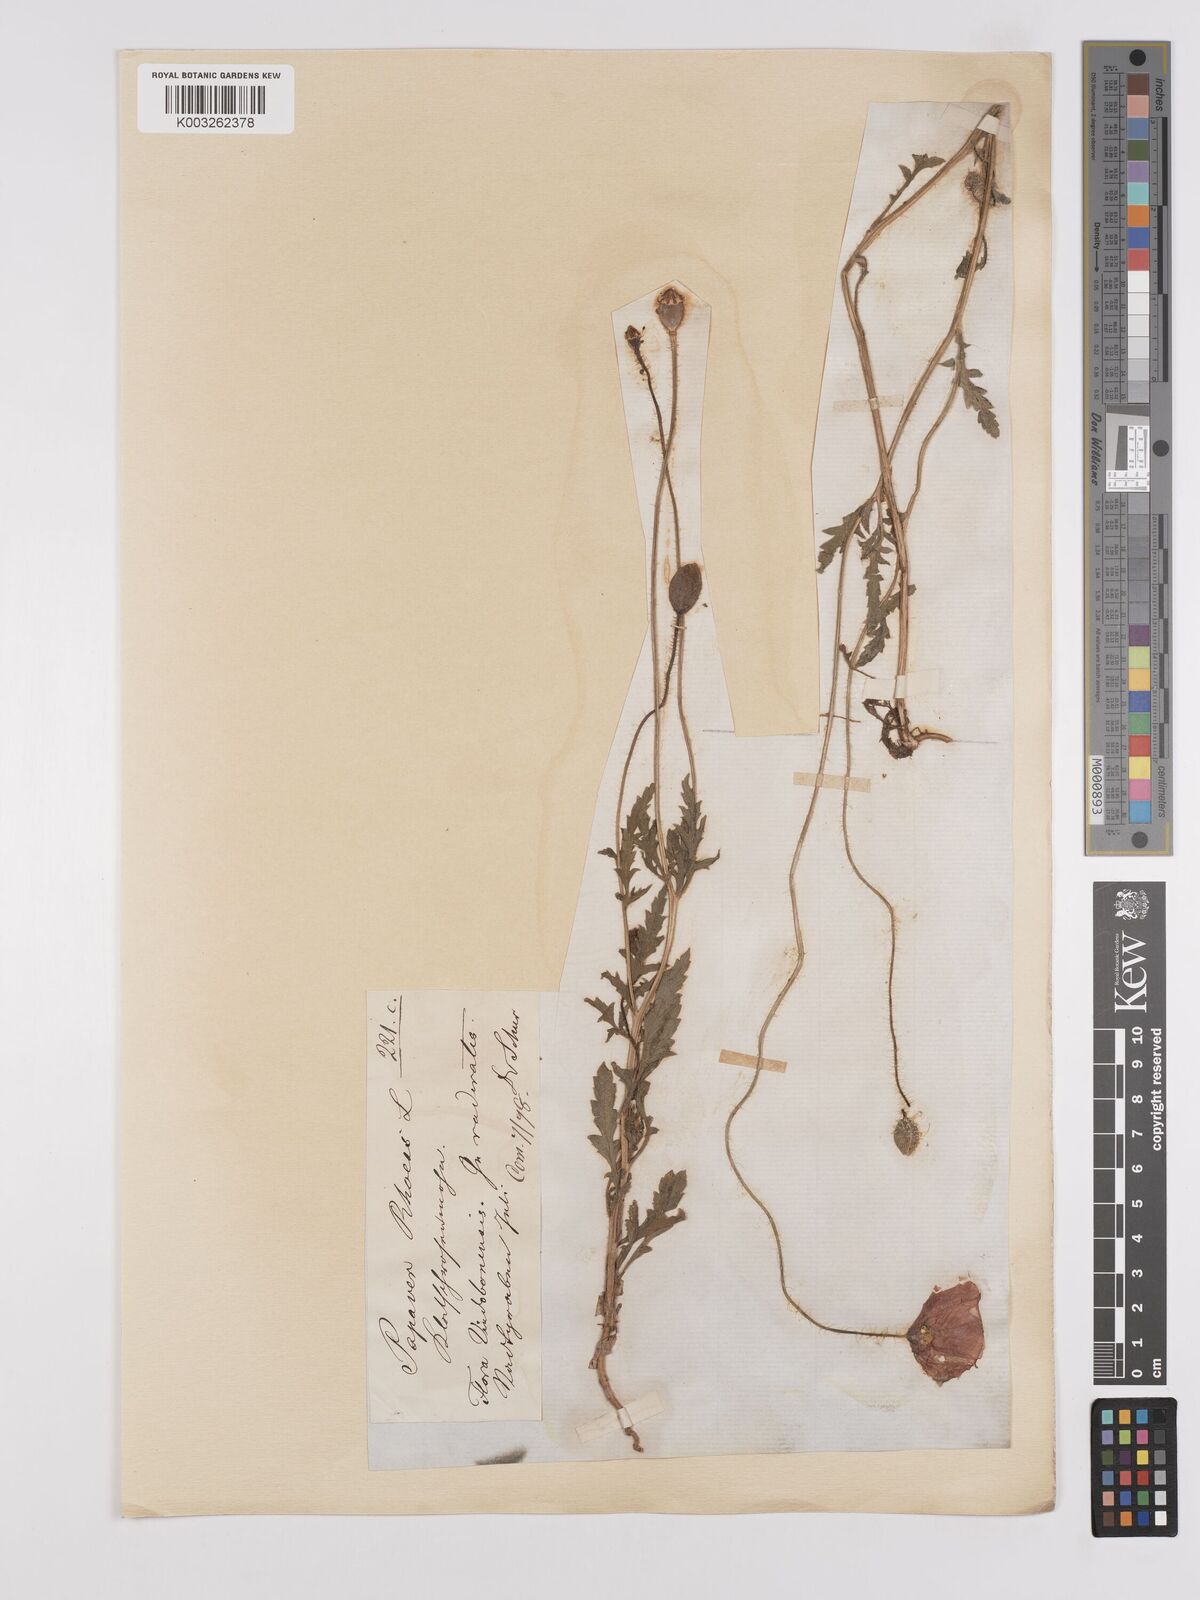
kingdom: Plantae
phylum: Tracheophyta
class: Magnoliopsida
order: Ranunculales
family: Papaveraceae
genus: Papaver
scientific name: Papaver rhoeas
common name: Corn poppy
